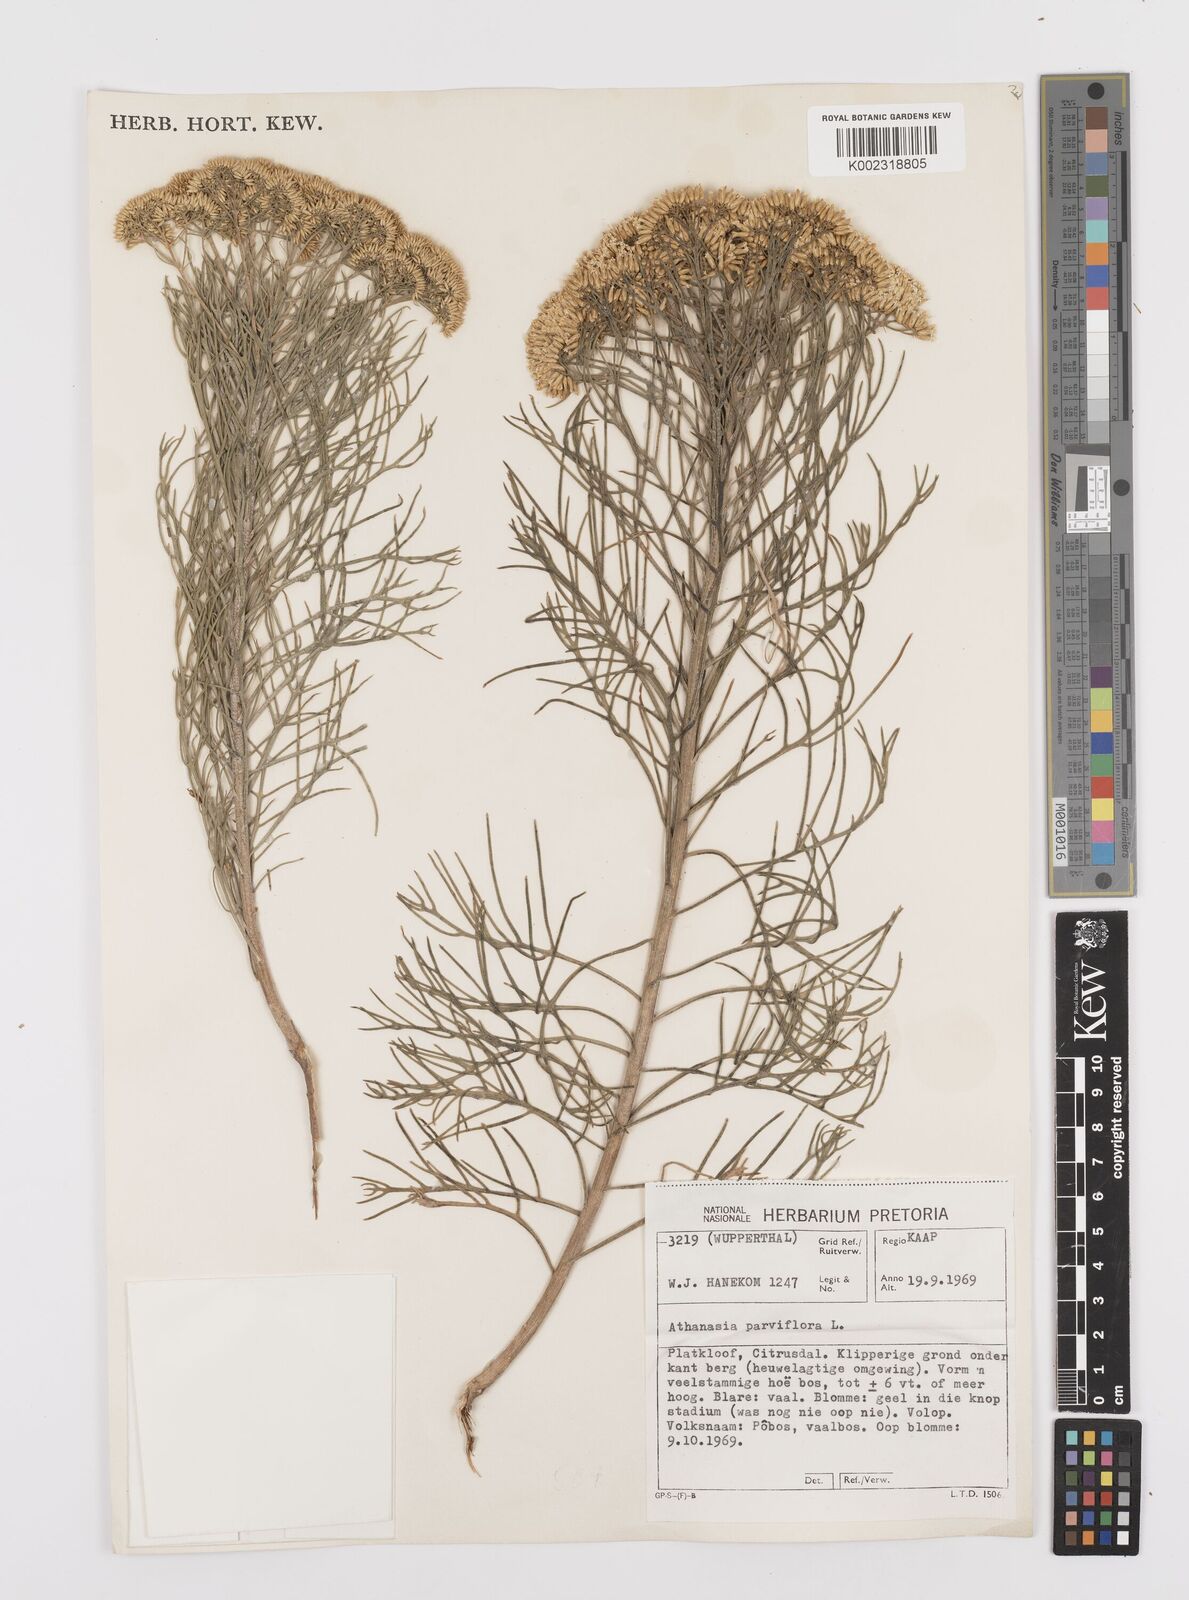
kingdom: Plantae
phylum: Tracheophyta
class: Magnoliopsida
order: Asterales
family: Asteraceae
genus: Hymenolepis
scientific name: Hymenolepis crithmifolia
